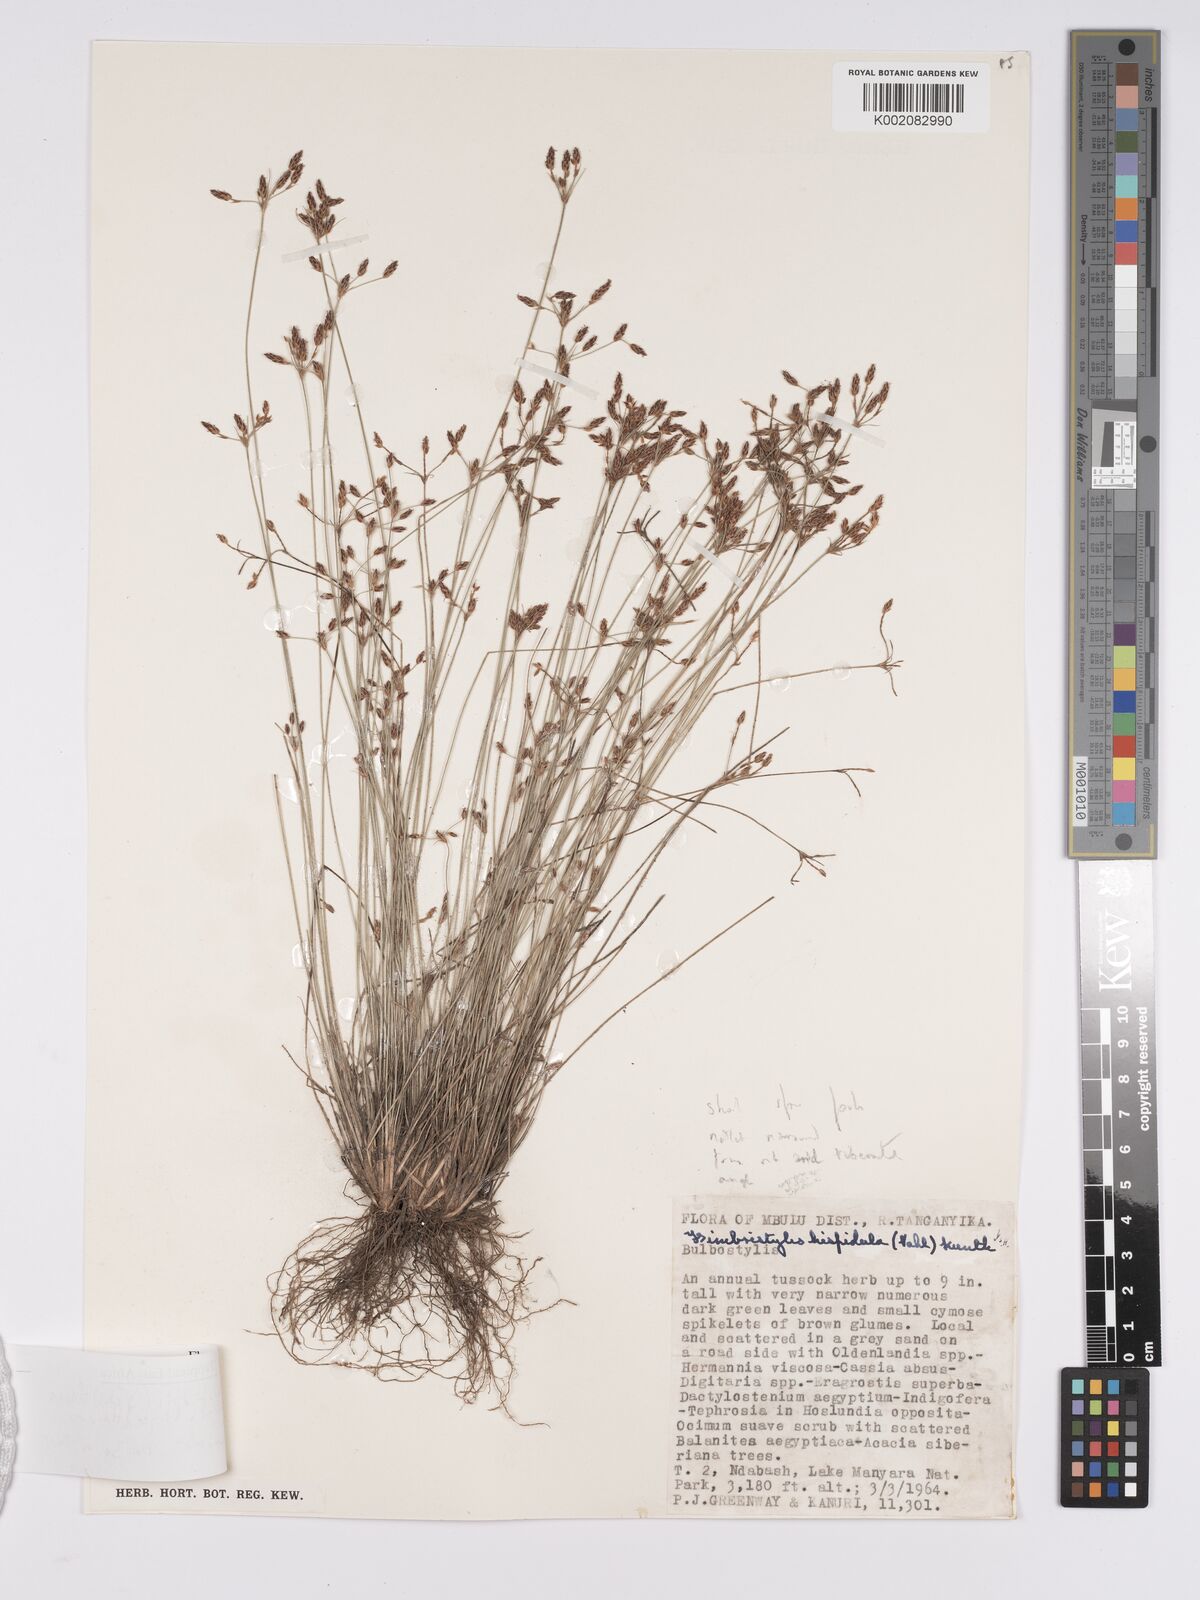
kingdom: Plantae
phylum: Tracheophyta
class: Liliopsida
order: Poales
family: Cyperaceae
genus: Bulbostylis
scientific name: Bulbostylis hispidula
